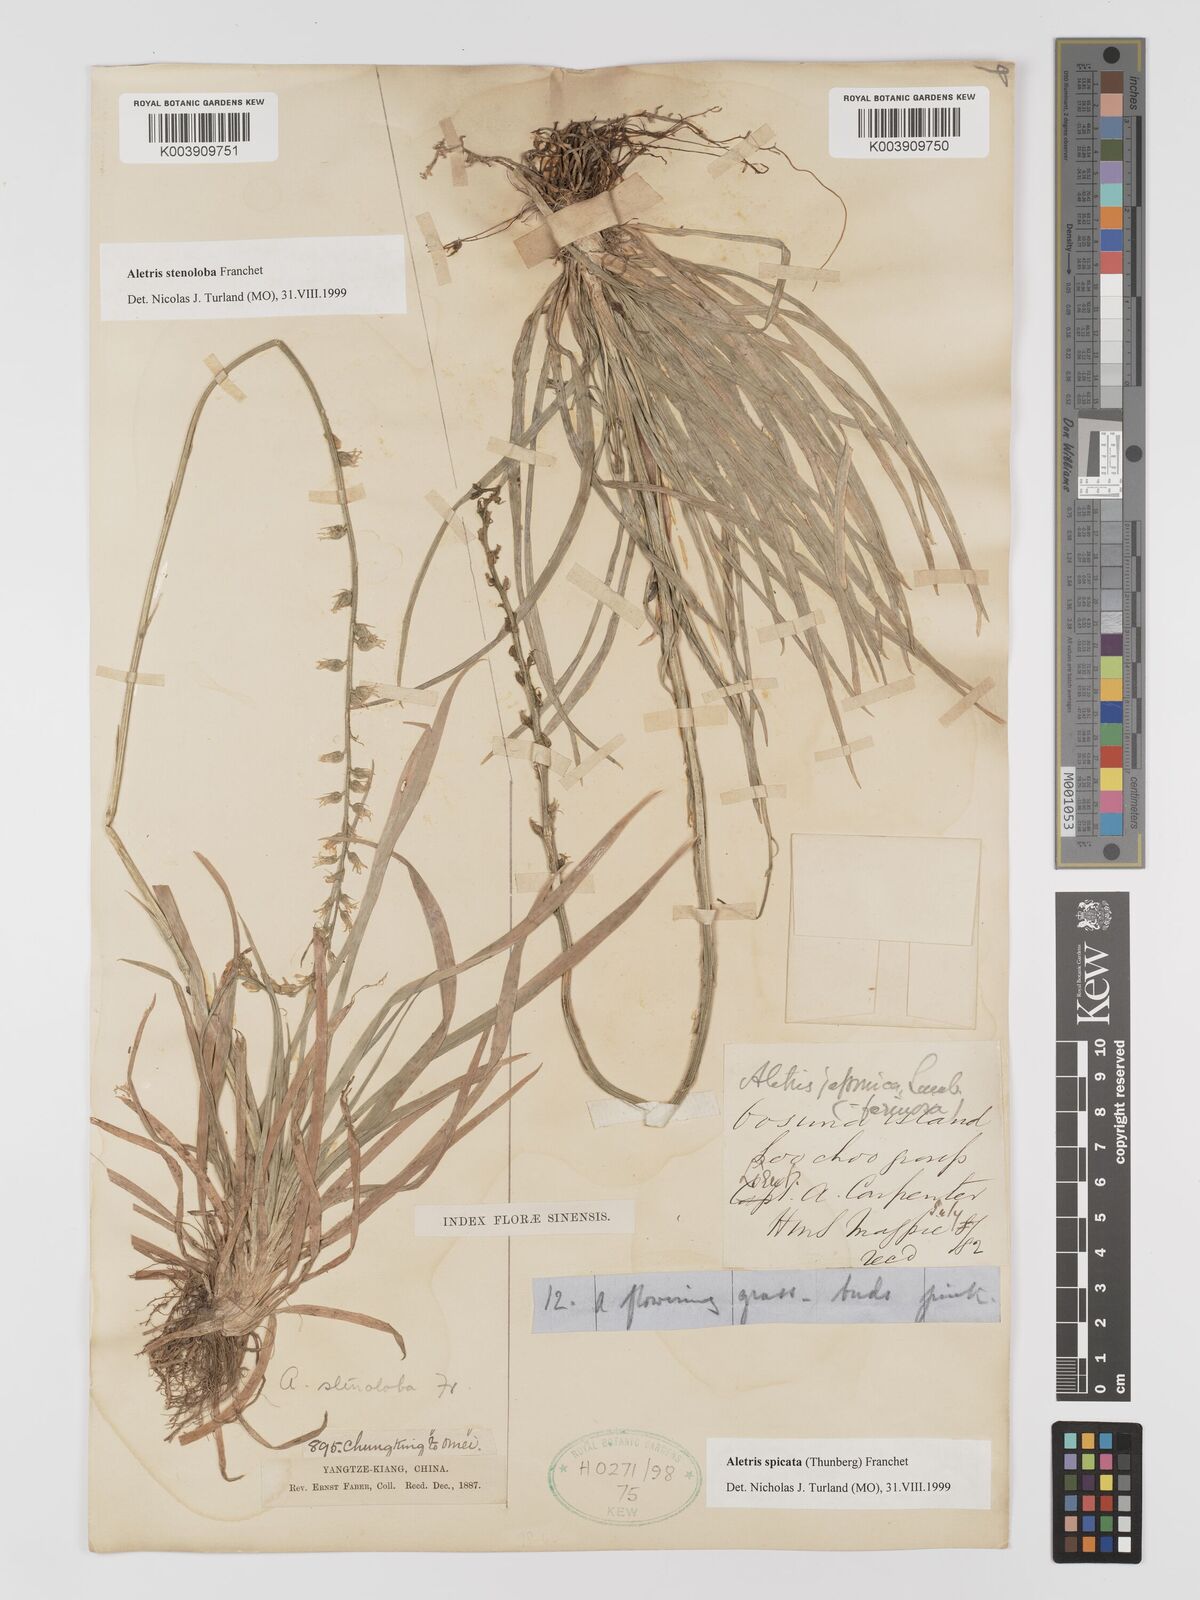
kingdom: Plantae
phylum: Tracheophyta
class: Liliopsida
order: Dioscoreales
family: Nartheciaceae
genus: Aletris
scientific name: Aletris spicata
